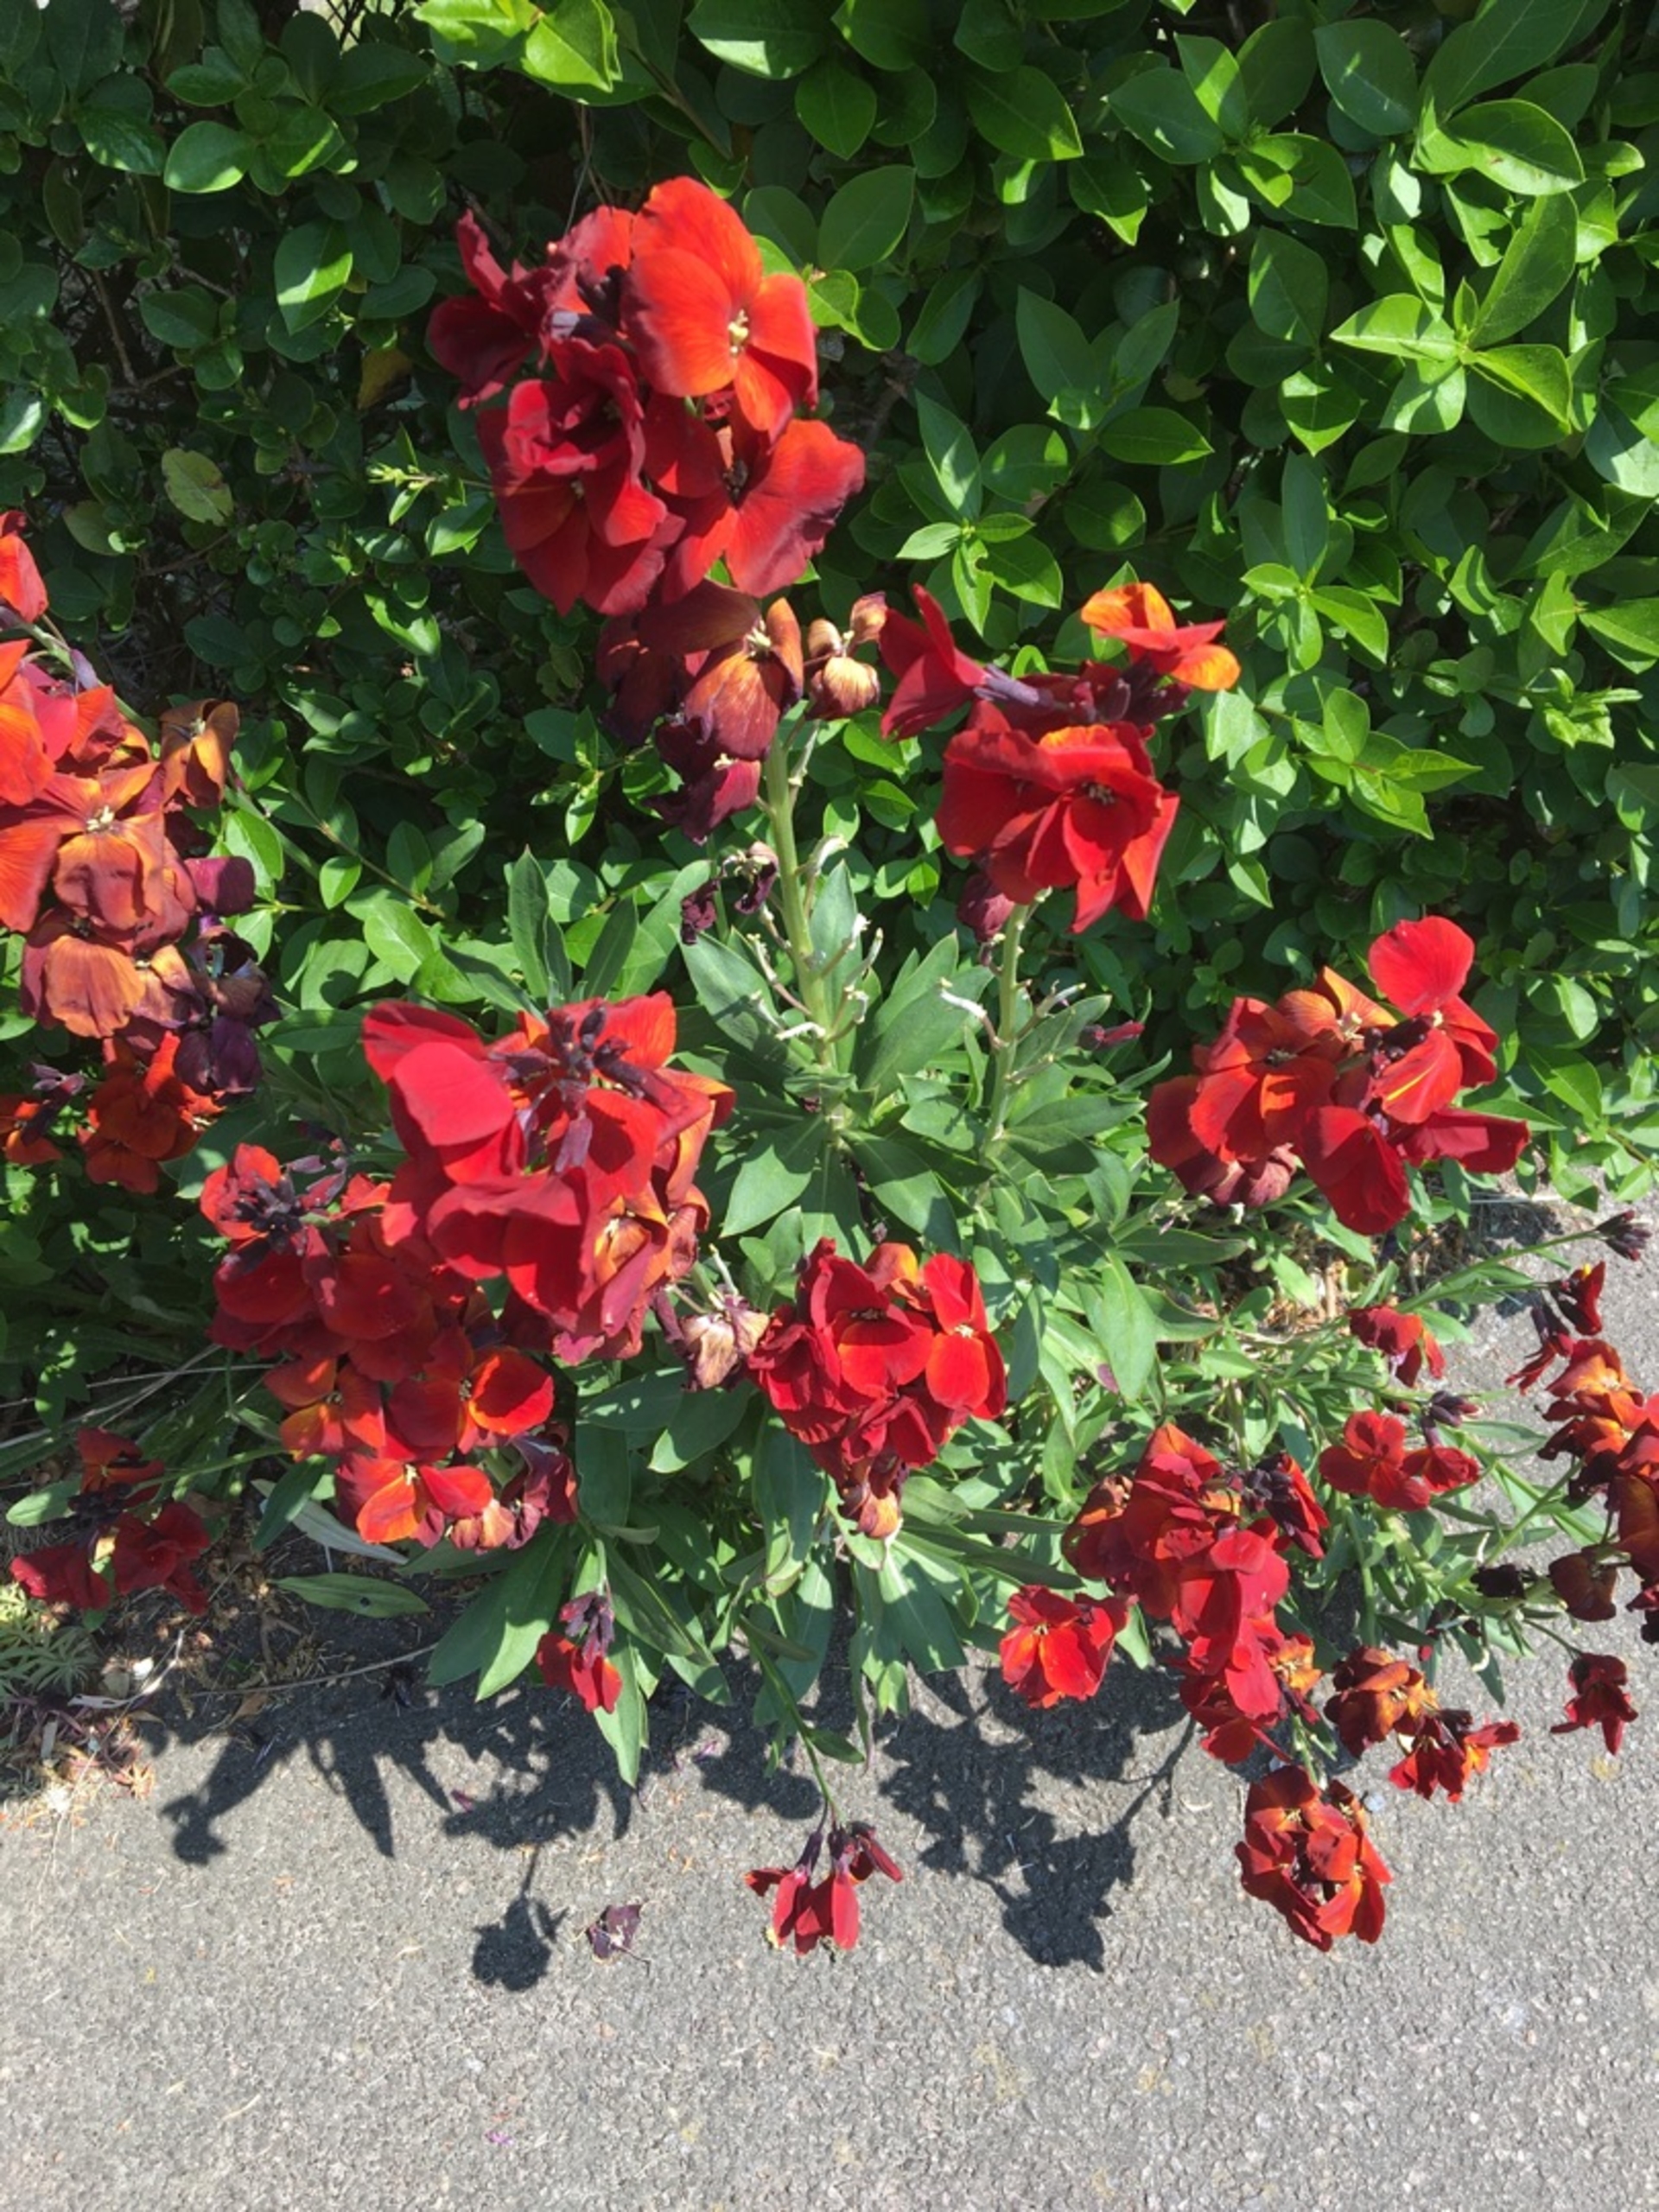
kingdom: Plantae
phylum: Tracheophyta
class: Magnoliopsida
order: Brassicales
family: Brassicaceae
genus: Erysimum
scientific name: Erysimum cheiri
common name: Gyldenlak
